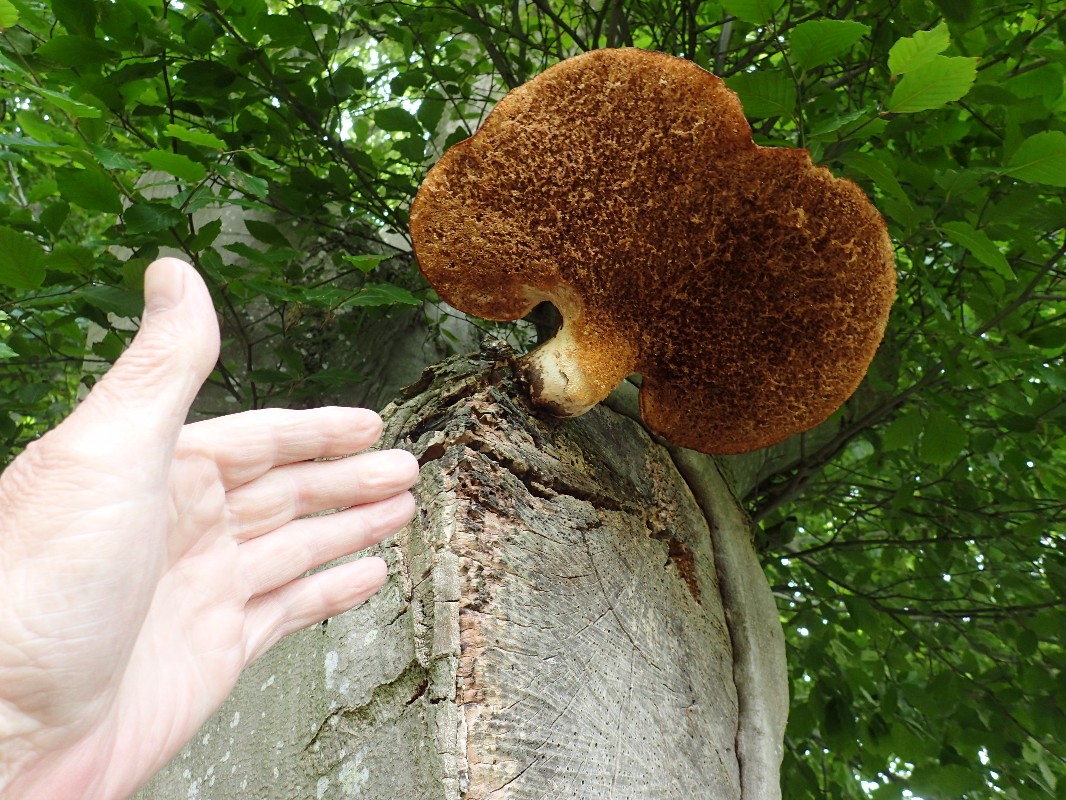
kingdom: Fungi
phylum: Basidiomycota
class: Agaricomycetes
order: Polyporales
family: Polyporaceae
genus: Cerioporus
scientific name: Cerioporus squamosus
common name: skællet stilkporesvamp
